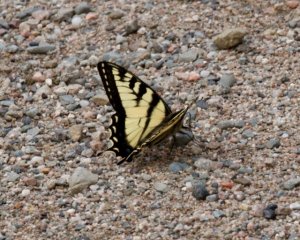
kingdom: Animalia
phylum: Arthropoda
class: Insecta
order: Lepidoptera
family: Papilionidae
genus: Pterourus
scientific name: Pterourus canadensis
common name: Canadian Tiger Swallowtail
